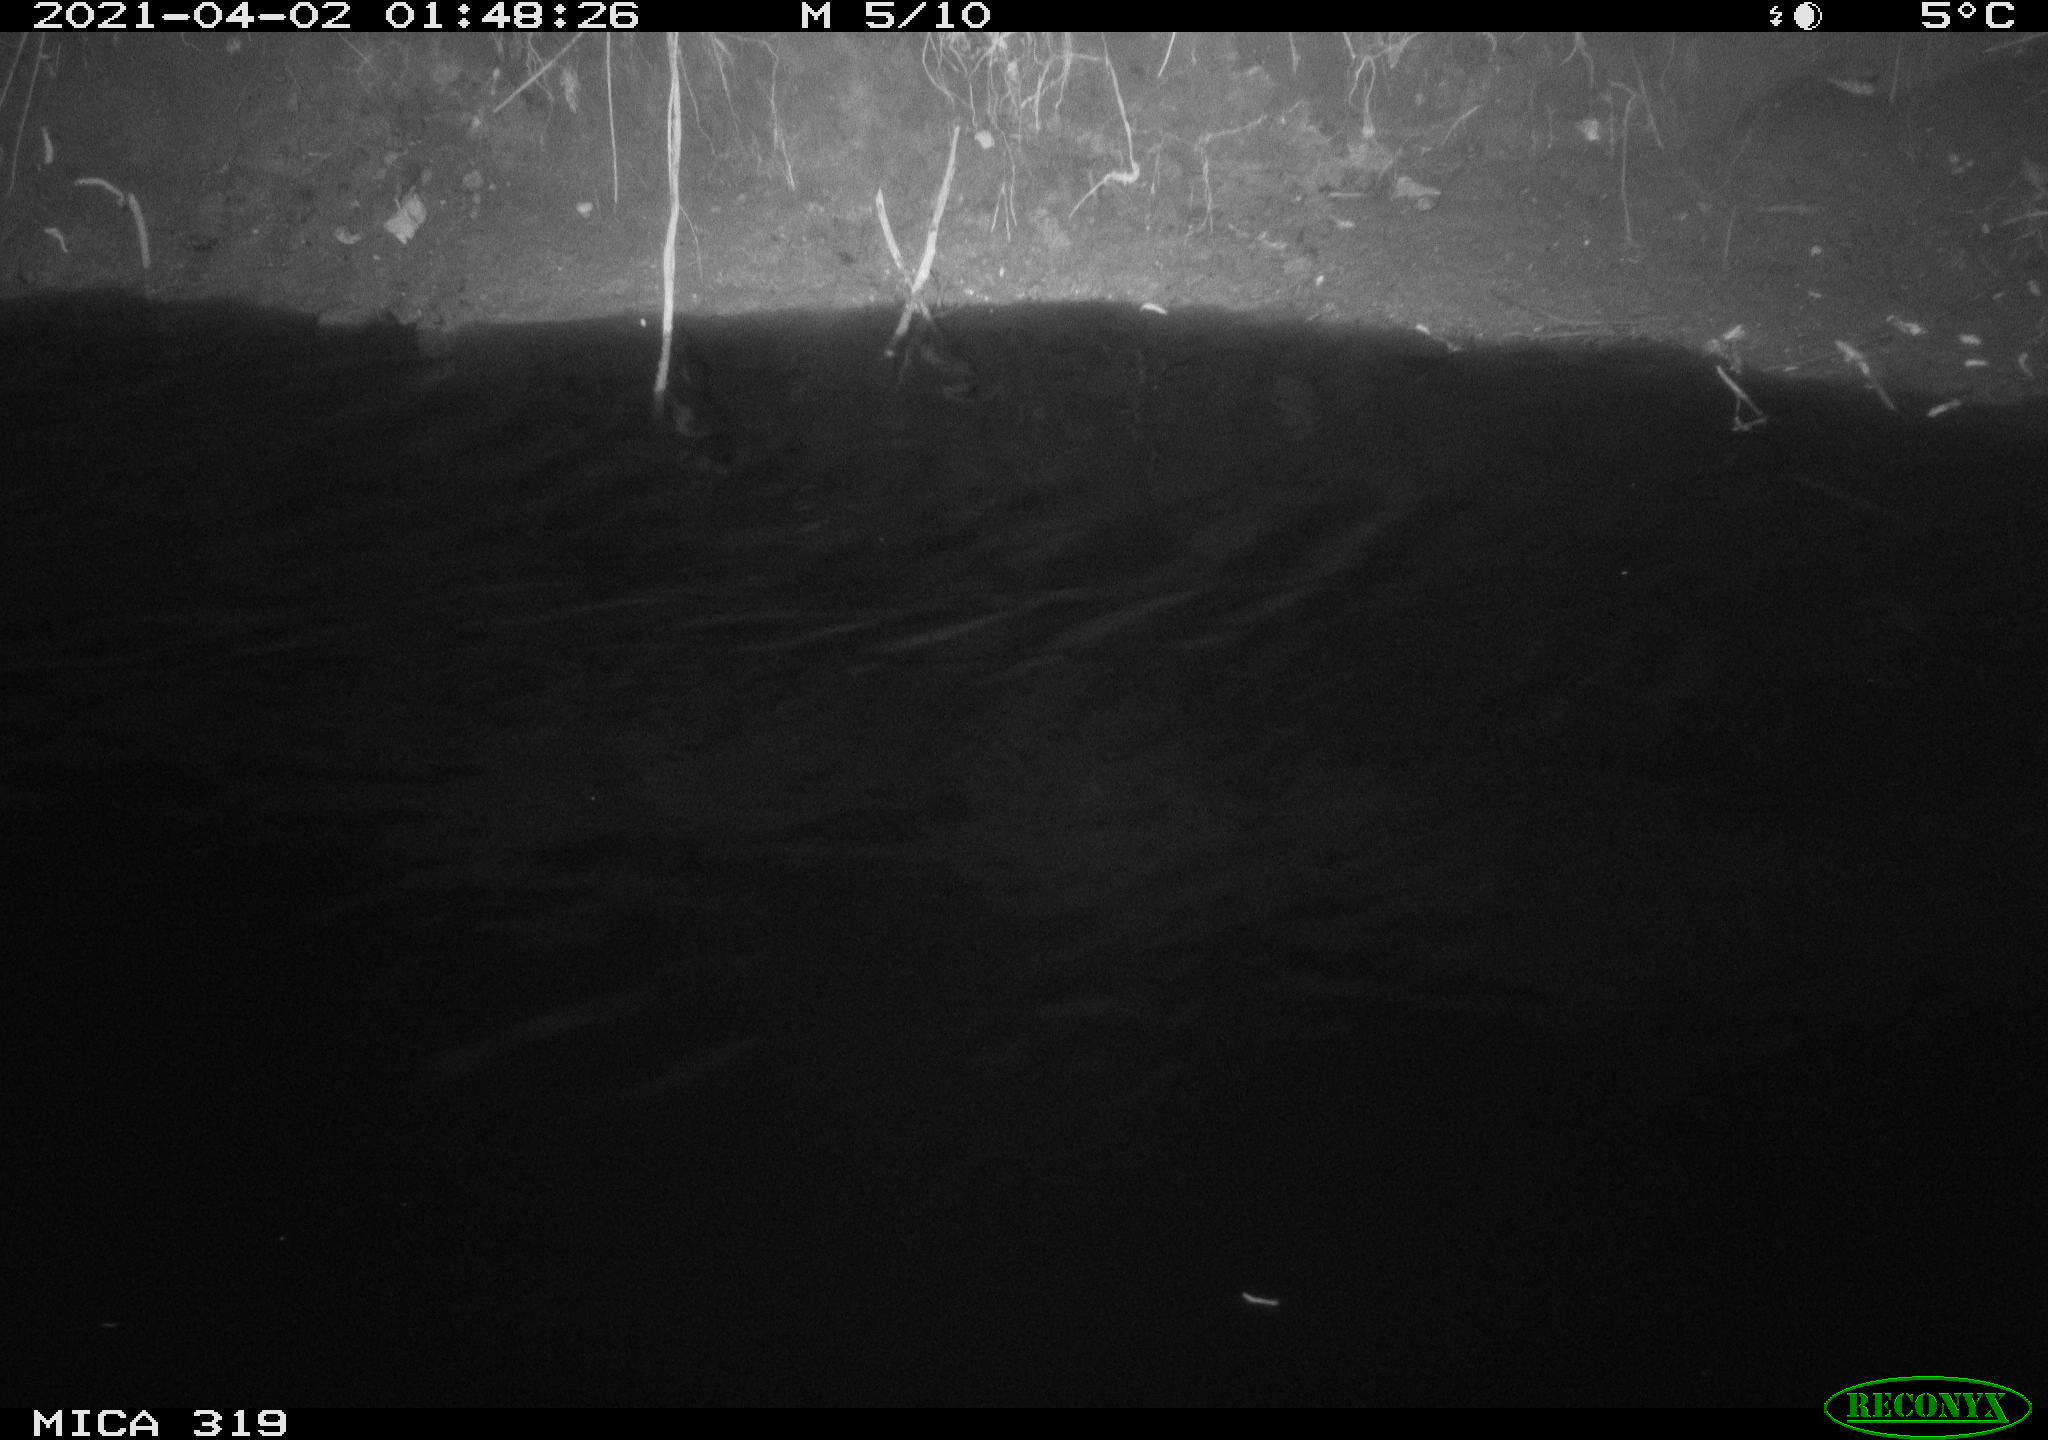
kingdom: Animalia
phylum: Chordata
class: Aves
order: Anseriformes
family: Anatidae
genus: Anas
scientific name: Anas platyrhynchos
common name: Mallard
